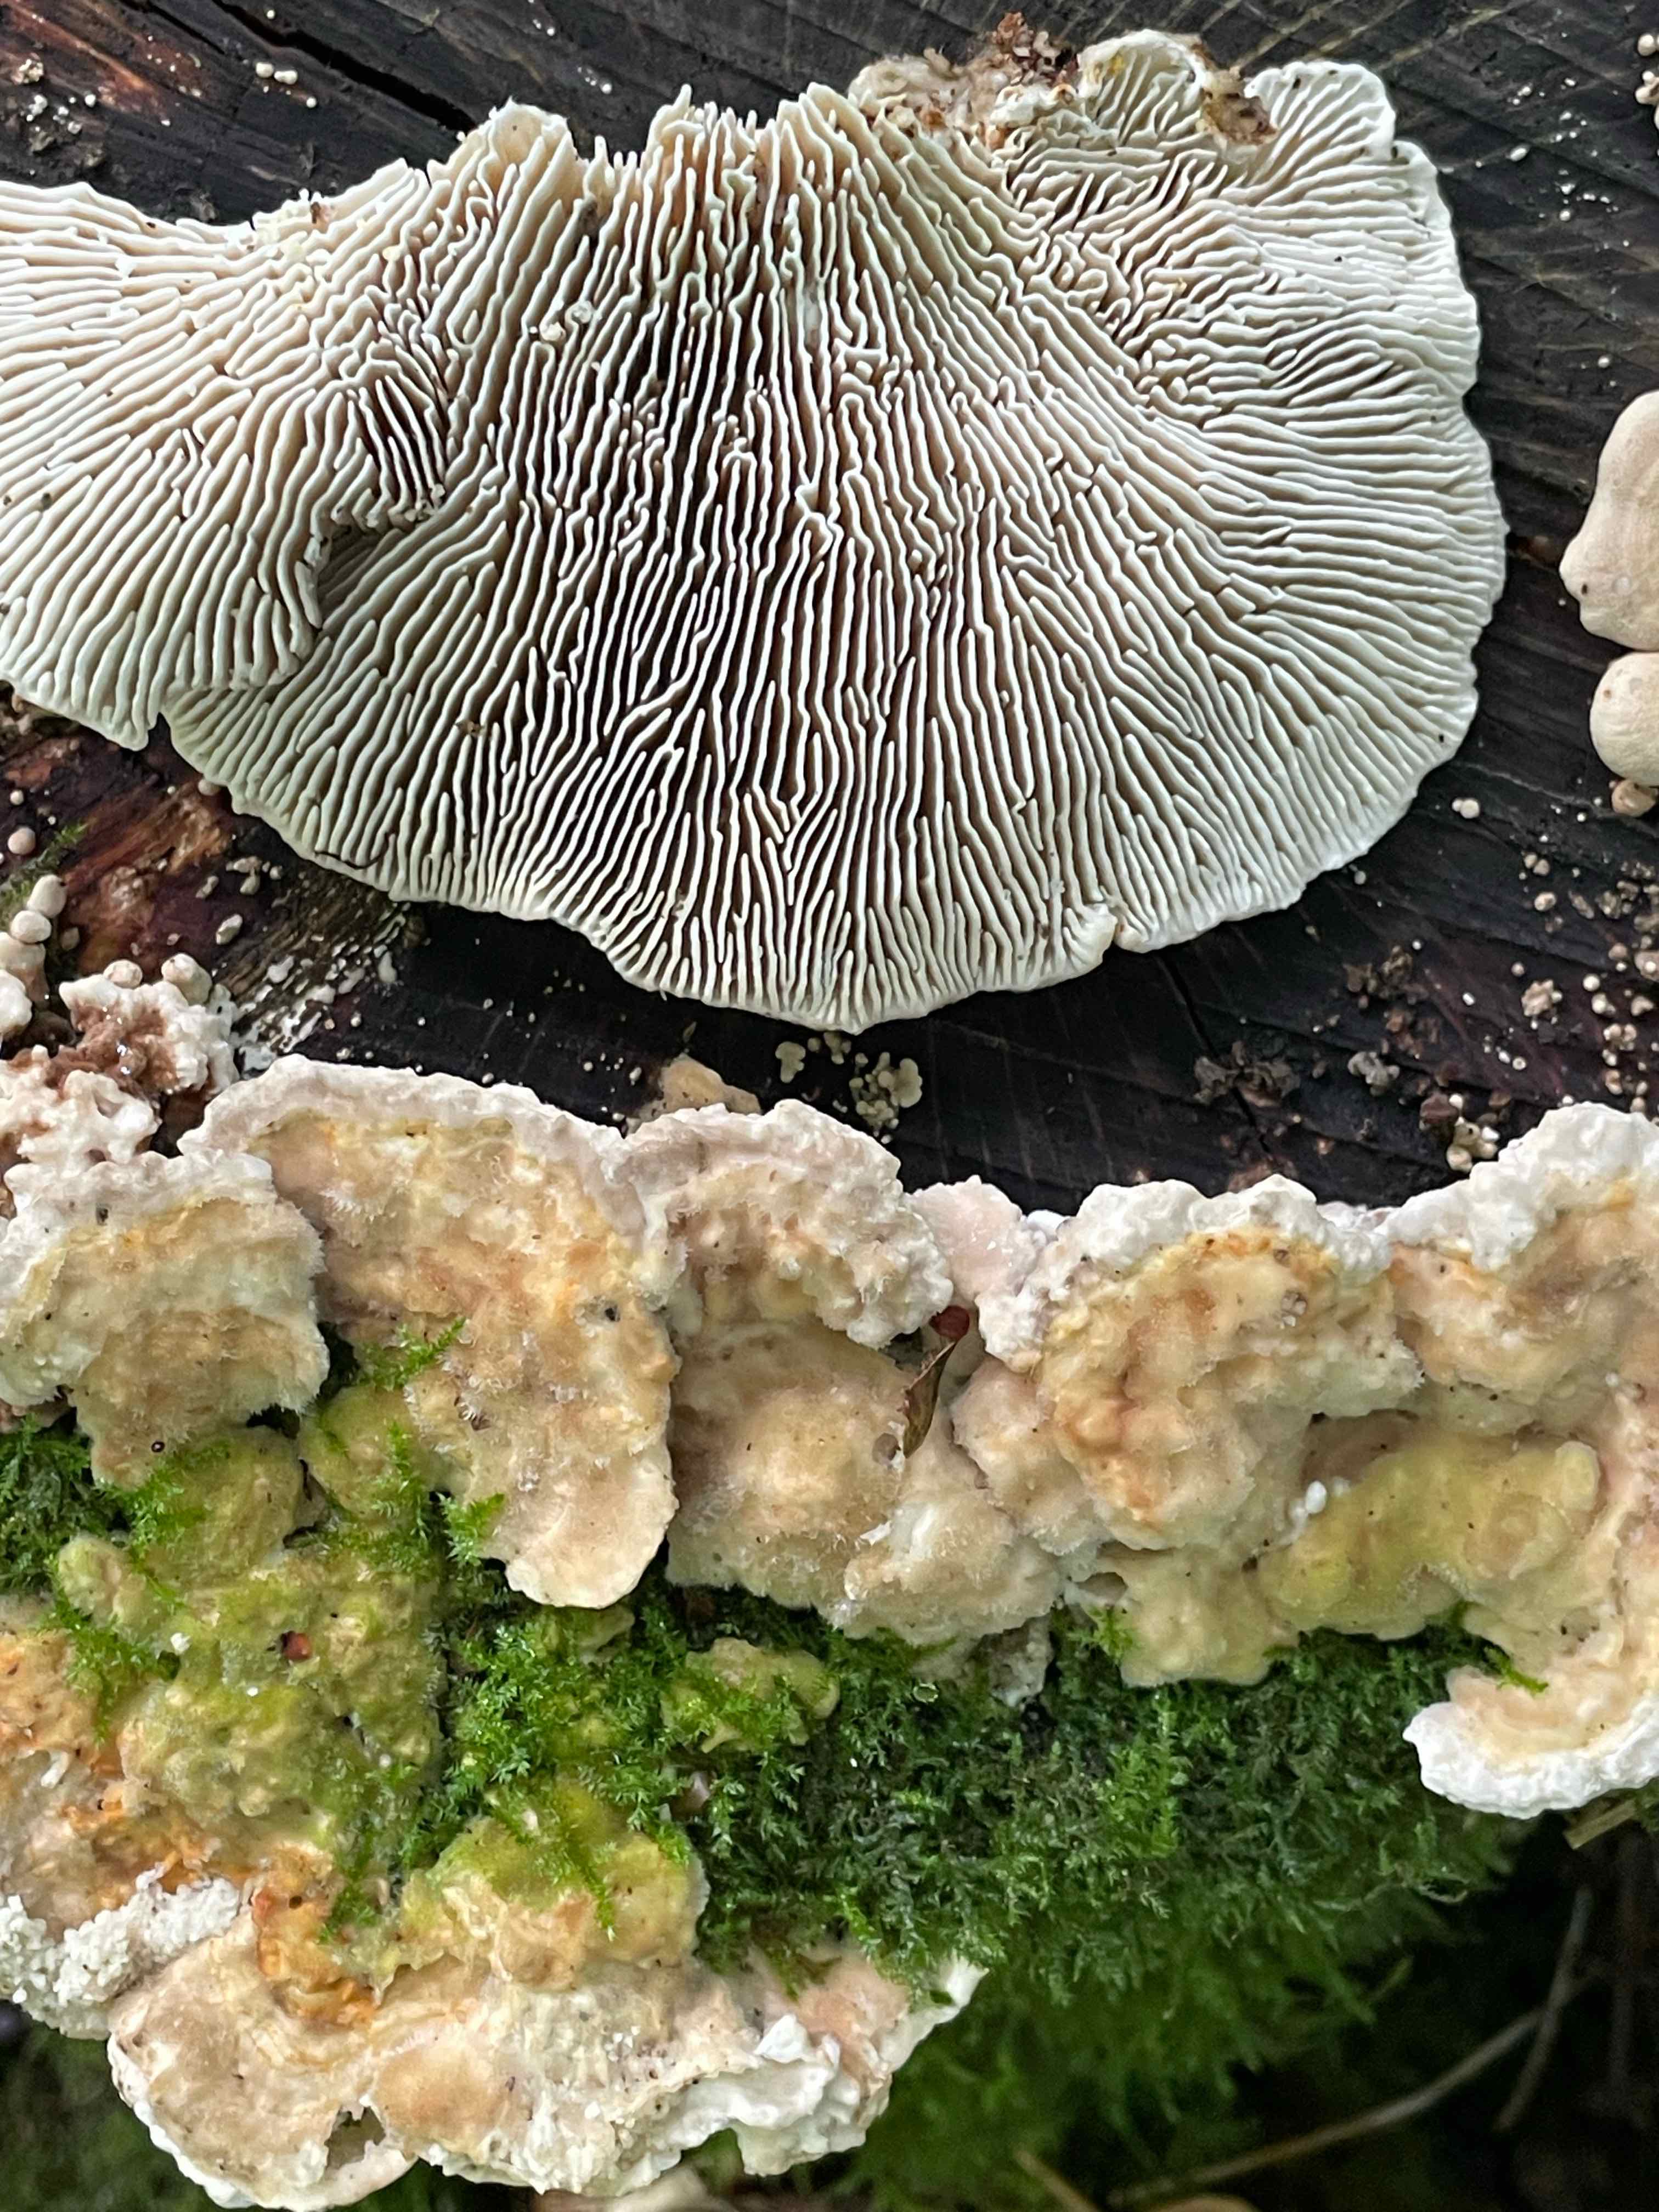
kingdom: Fungi
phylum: Basidiomycota
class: Agaricomycetes
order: Polyporales
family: Polyporaceae
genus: Lenzites
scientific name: Lenzites betulinus
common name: birke-læderporesvamp
